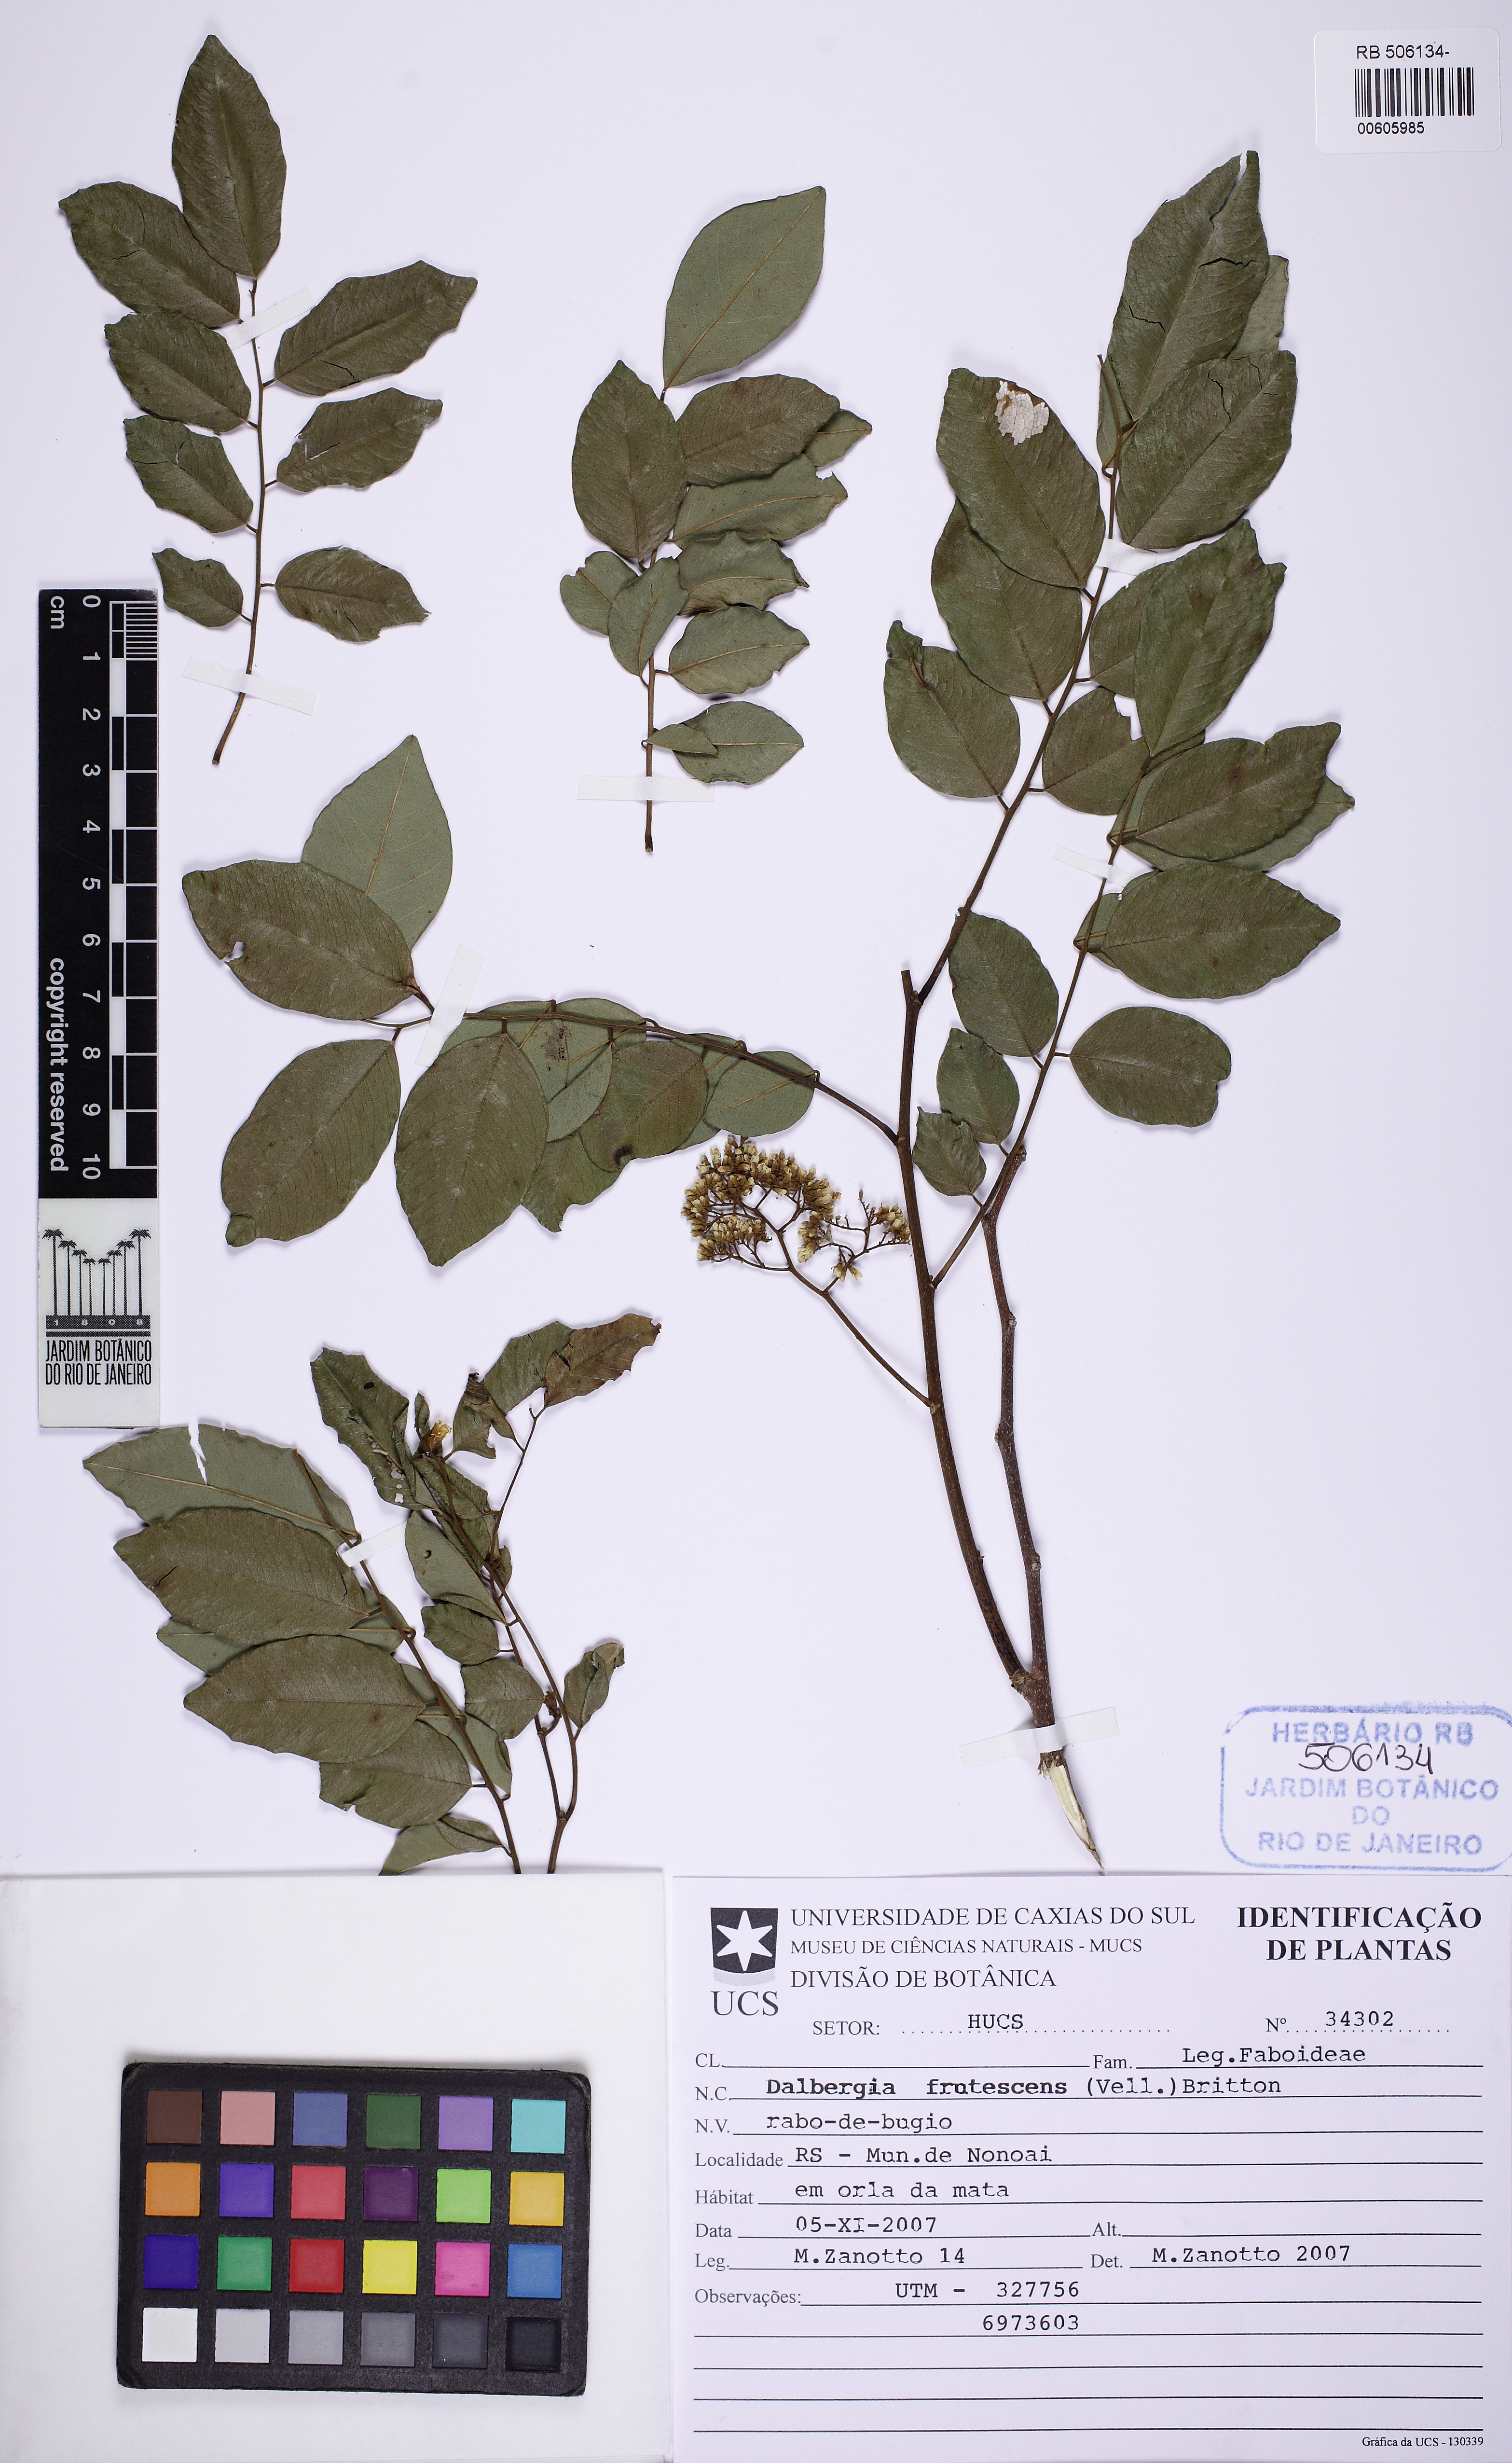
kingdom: Plantae
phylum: Tracheophyta
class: Magnoliopsida
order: Fabales
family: Fabaceae
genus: Dalbergia
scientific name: Dalbergia frutescens
